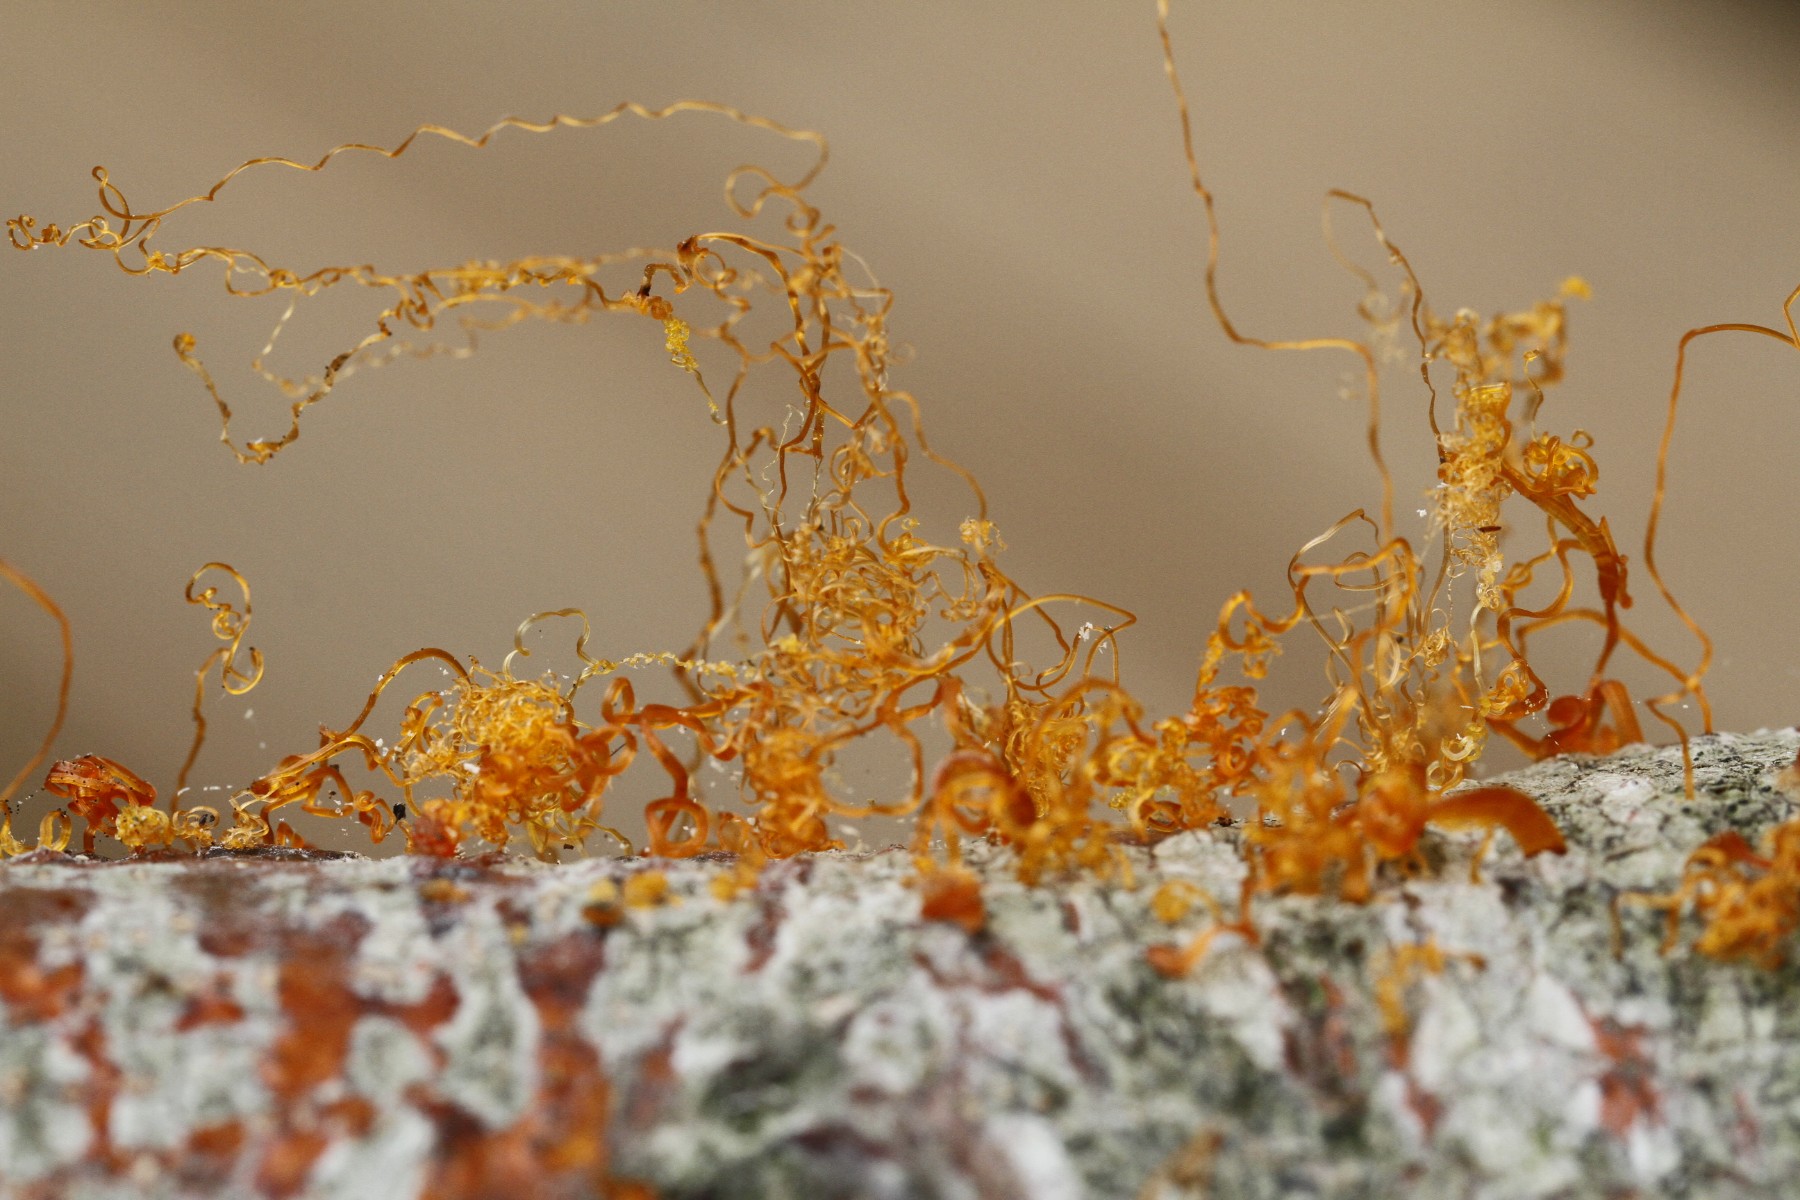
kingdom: Fungi
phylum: Ascomycota
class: Sordariomycetes
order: Xylariales
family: Diatrypaceae
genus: Eutypella
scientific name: Eutypella quaternata
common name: bøge-korsprik
